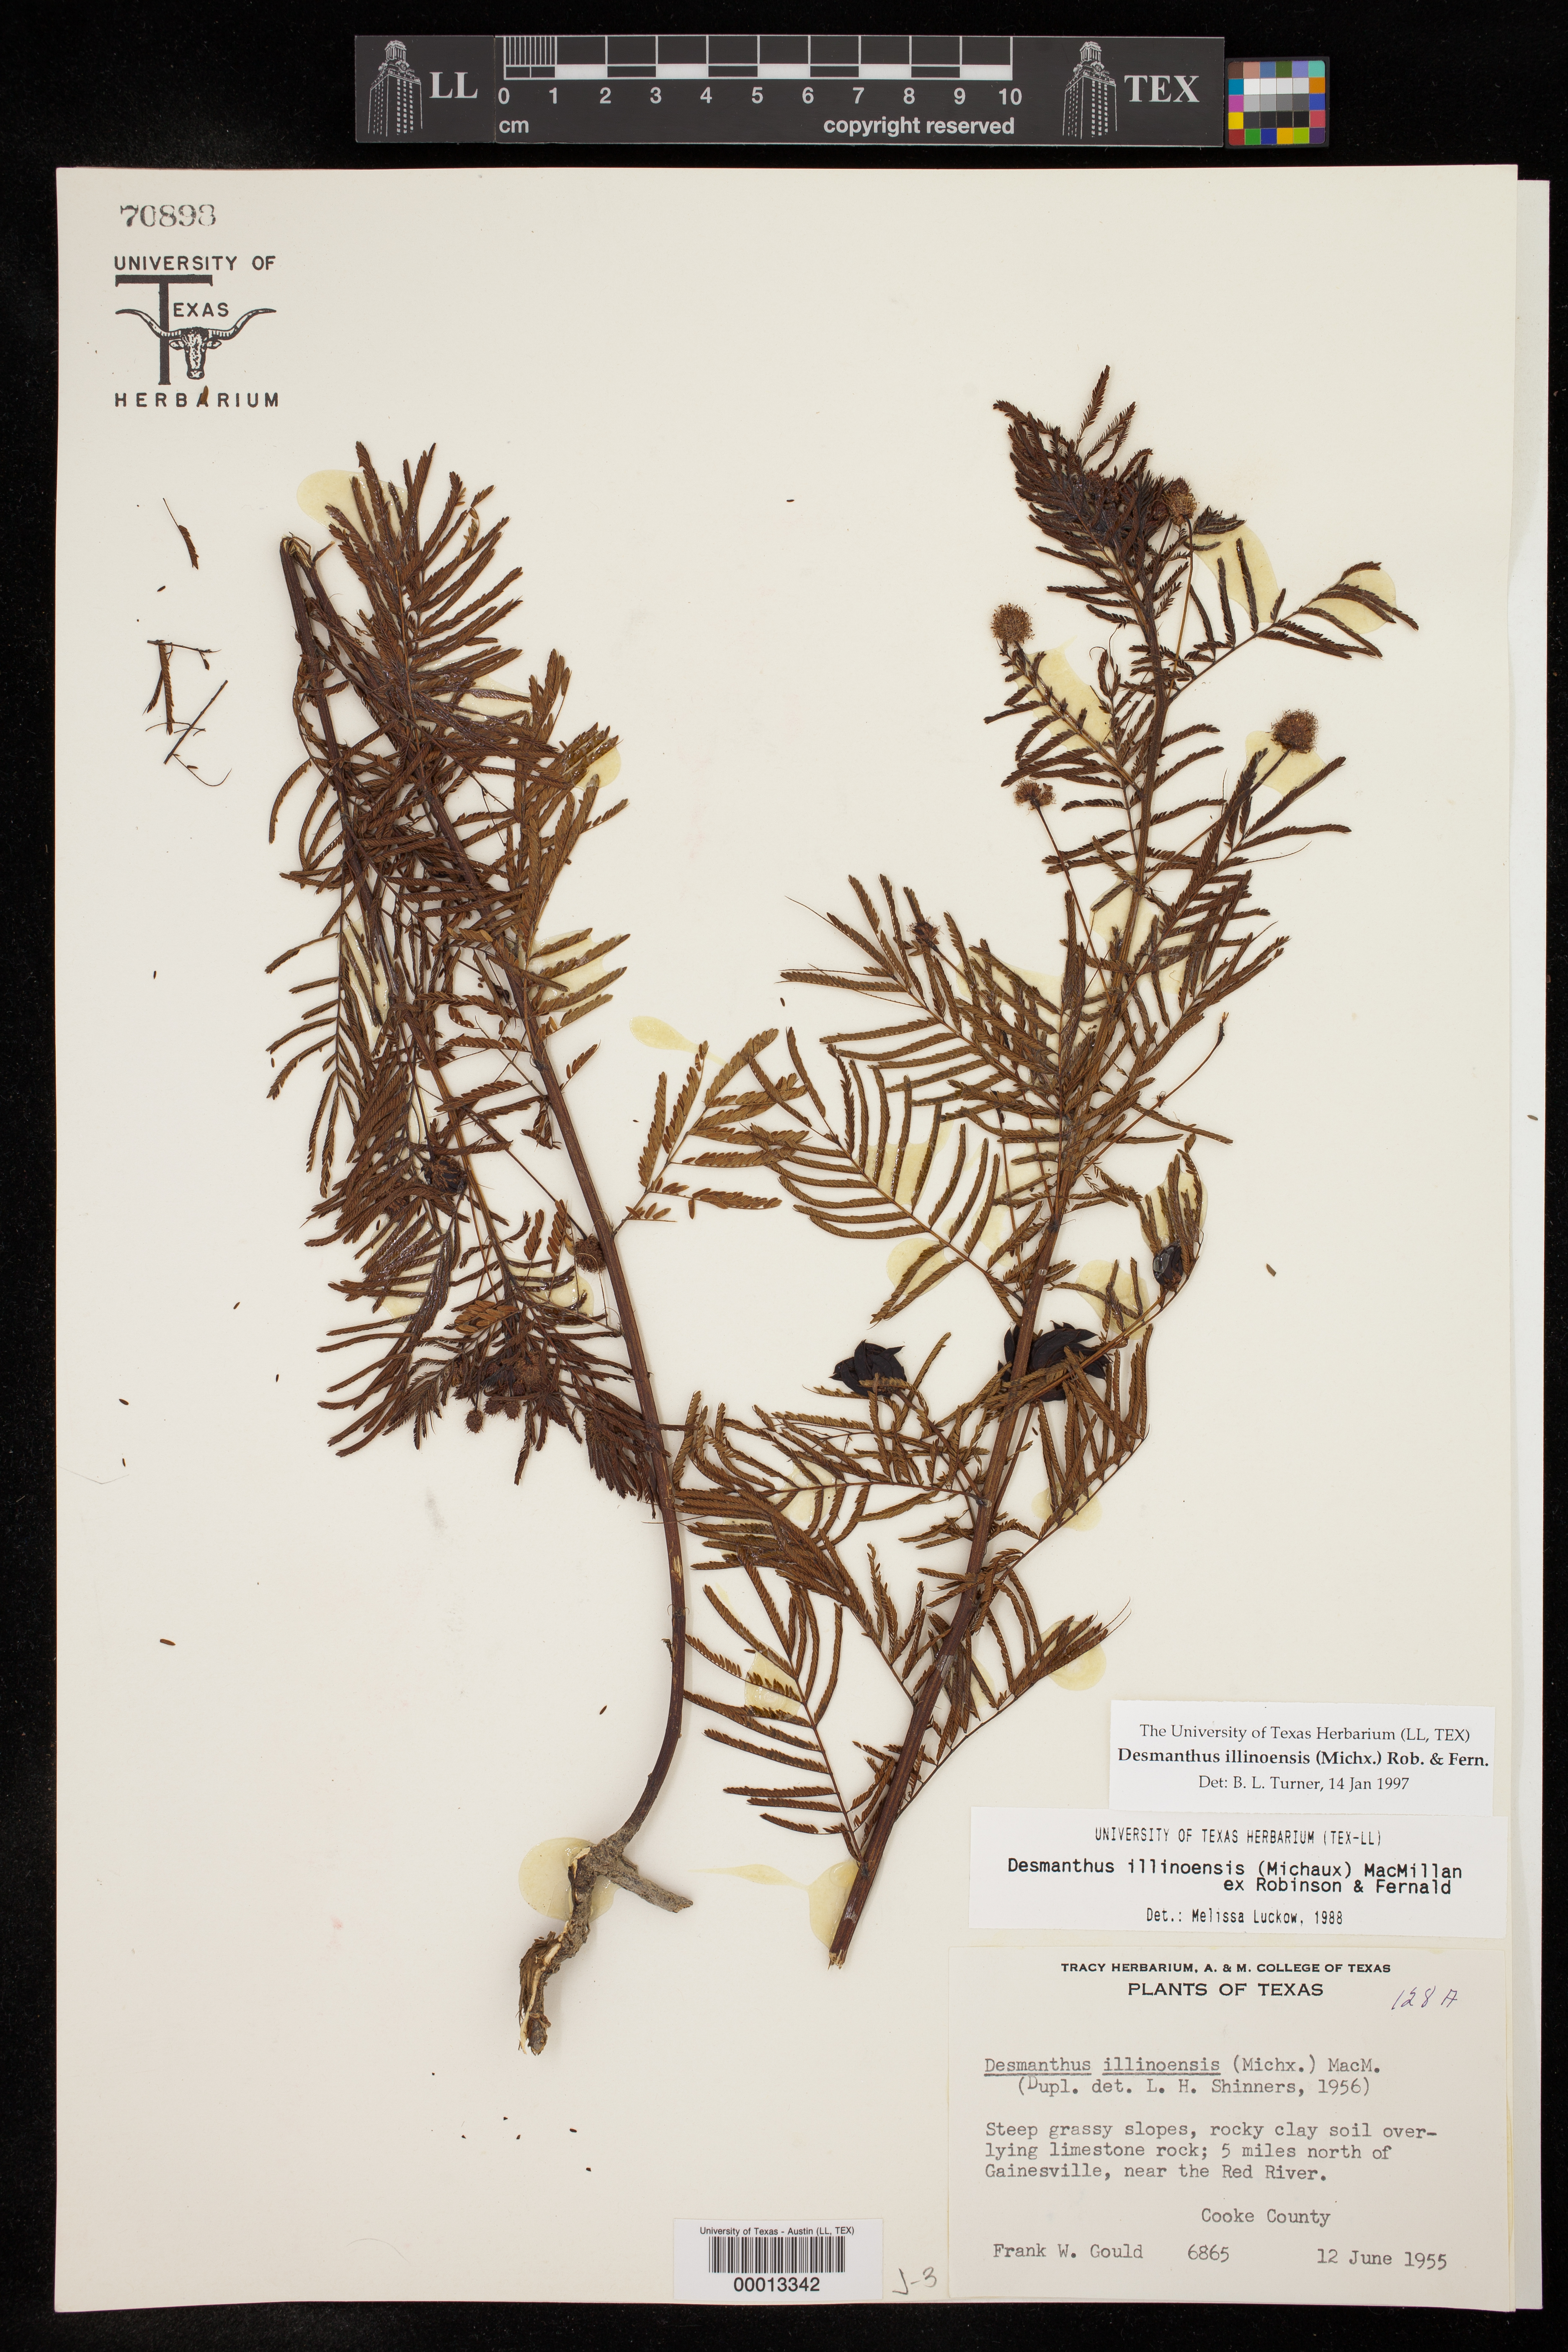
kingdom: Plantae
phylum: Tracheophyta
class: Magnoliopsida
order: Fabales
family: Fabaceae
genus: Desmanthus
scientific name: Desmanthus illinoensis
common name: Illinois bundle-flower
